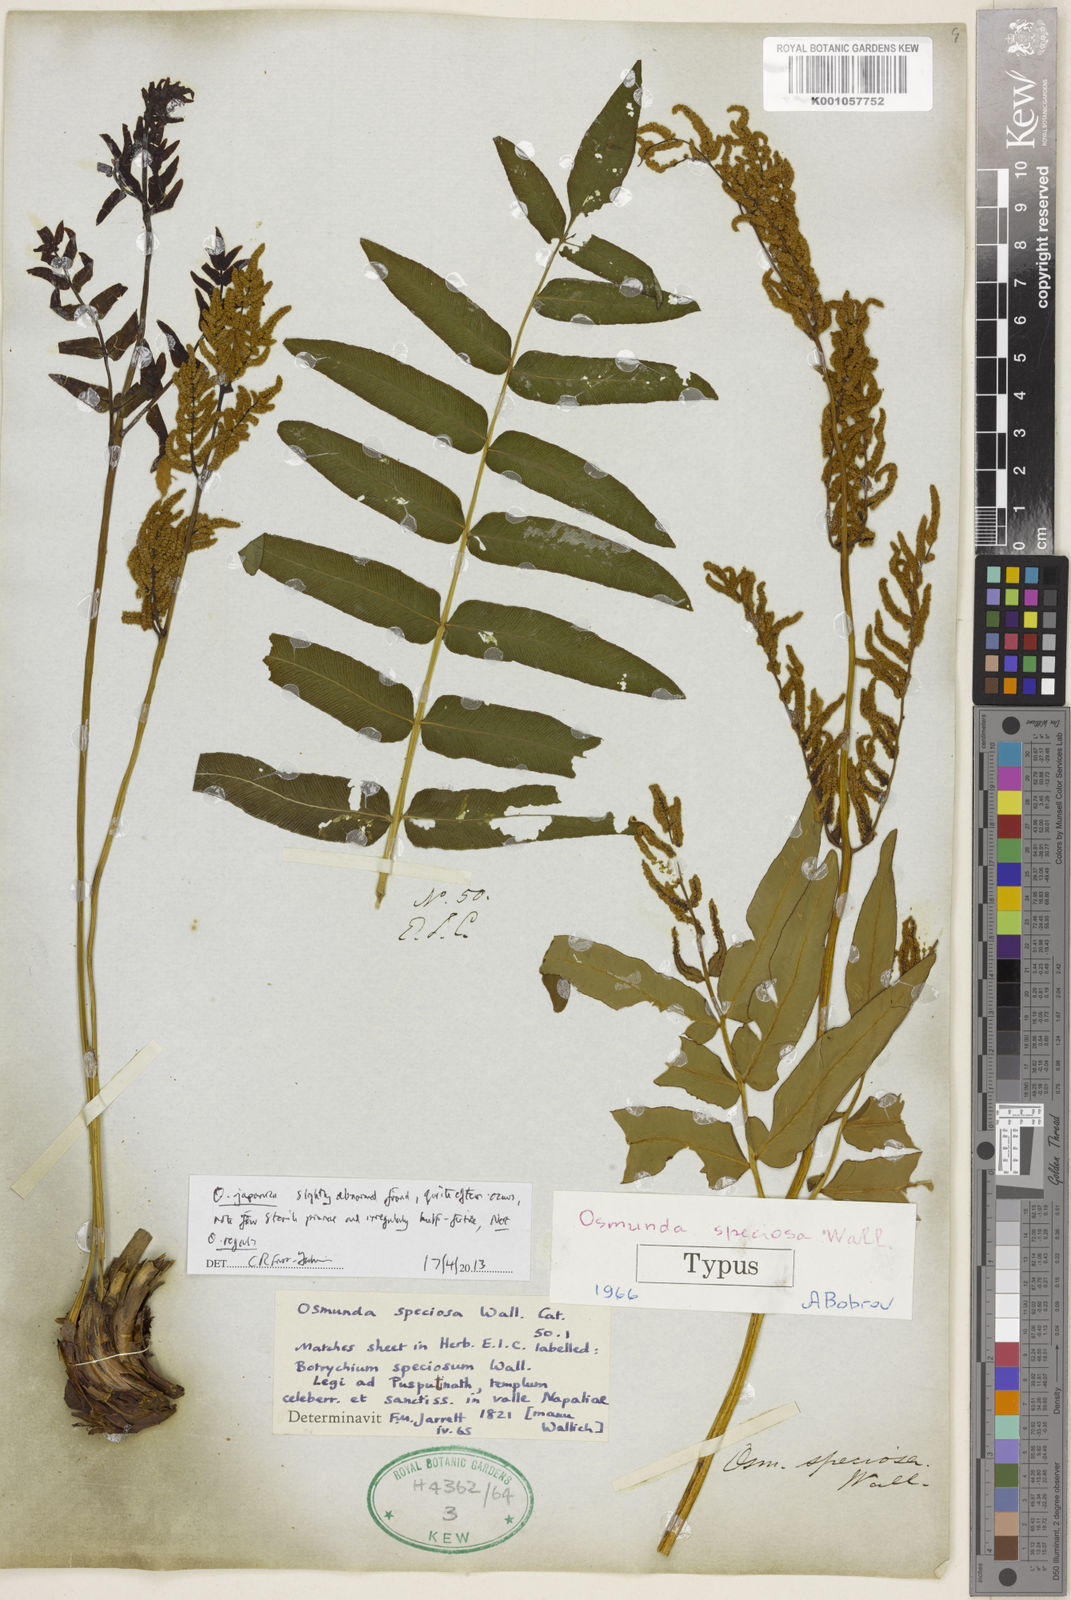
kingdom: Plantae
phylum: Tracheophyta
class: Polypodiopsida
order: Osmundales
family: Osmundaceae
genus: Osmunda
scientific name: Osmunda japonica
